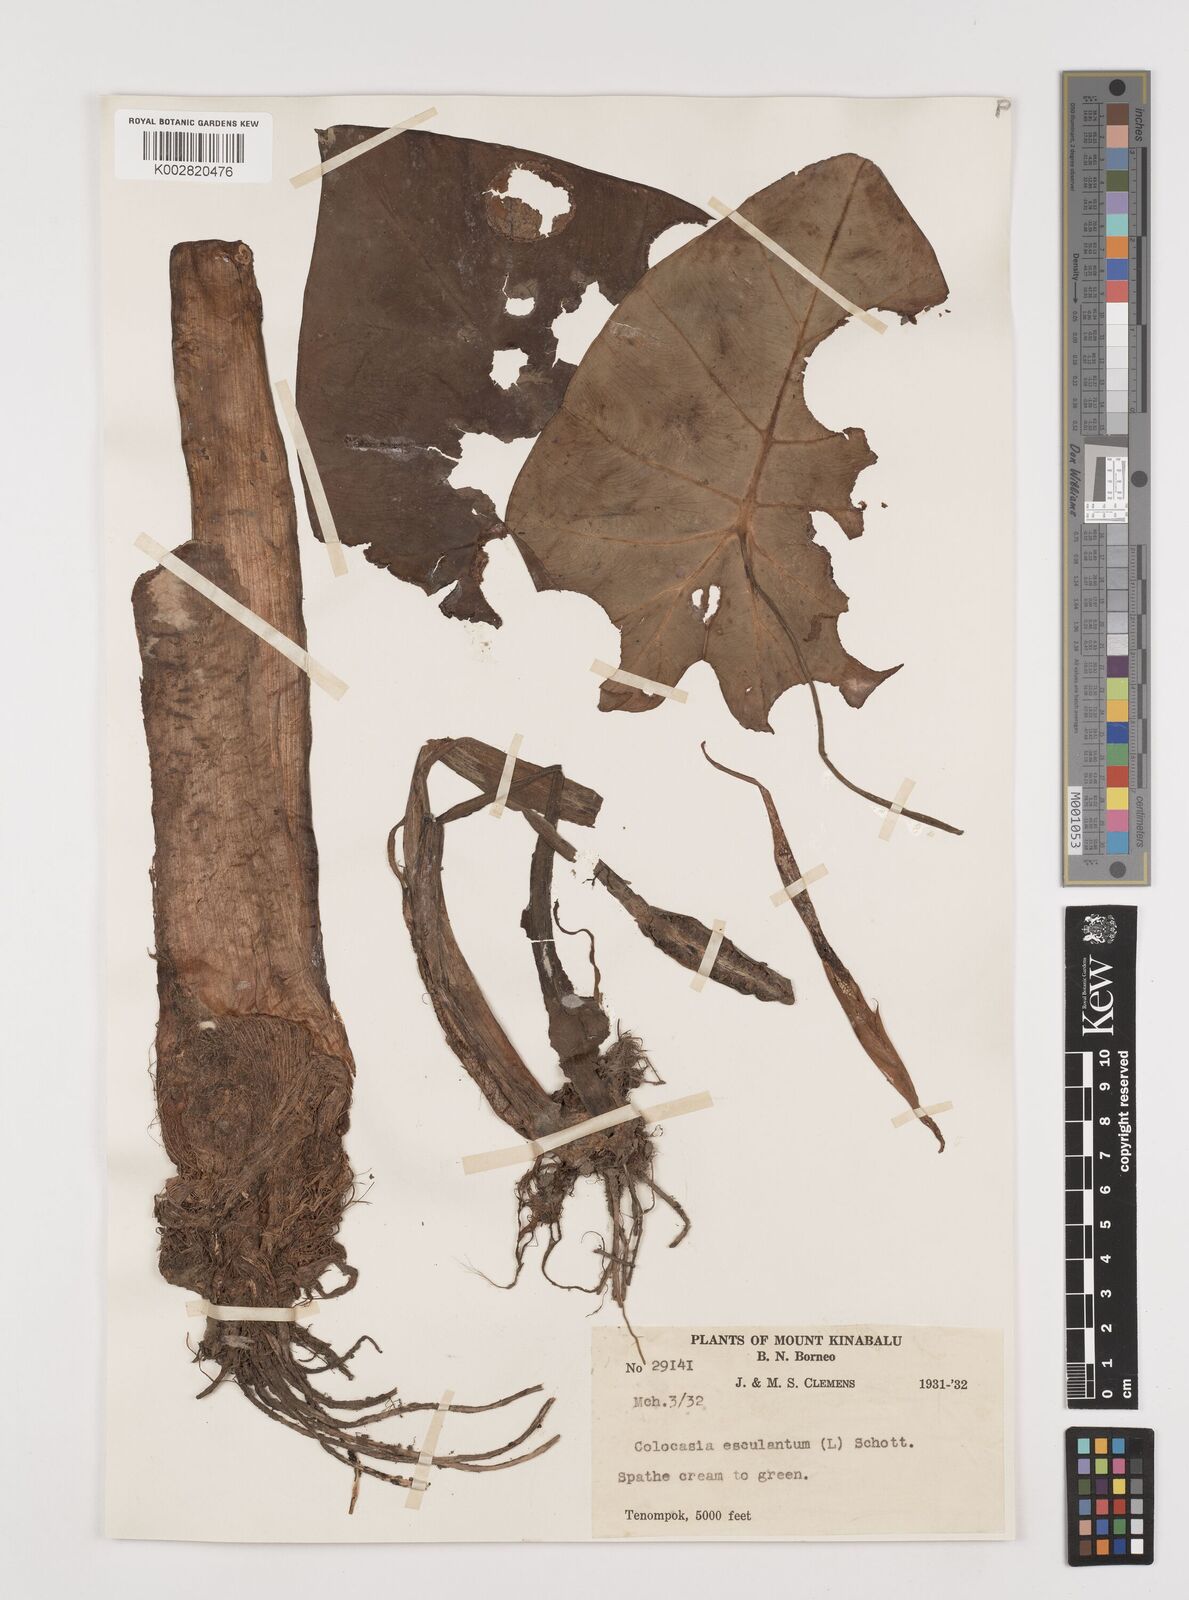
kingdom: Plantae
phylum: Tracheophyta
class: Liliopsida
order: Alismatales
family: Araceae
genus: Colocasia
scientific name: Colocasia oresbia
